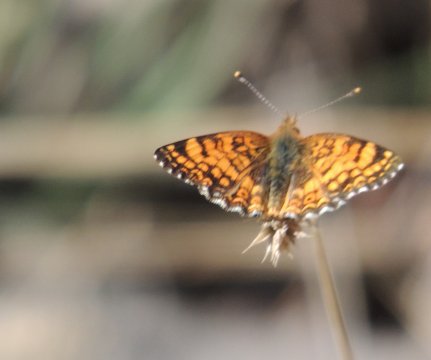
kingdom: Animalia
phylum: Arthropoda
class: Insecta
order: Lepidoptera
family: Nymphalidae
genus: Eresia
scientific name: Eresia aveyrona
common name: Mylitta Crescent
